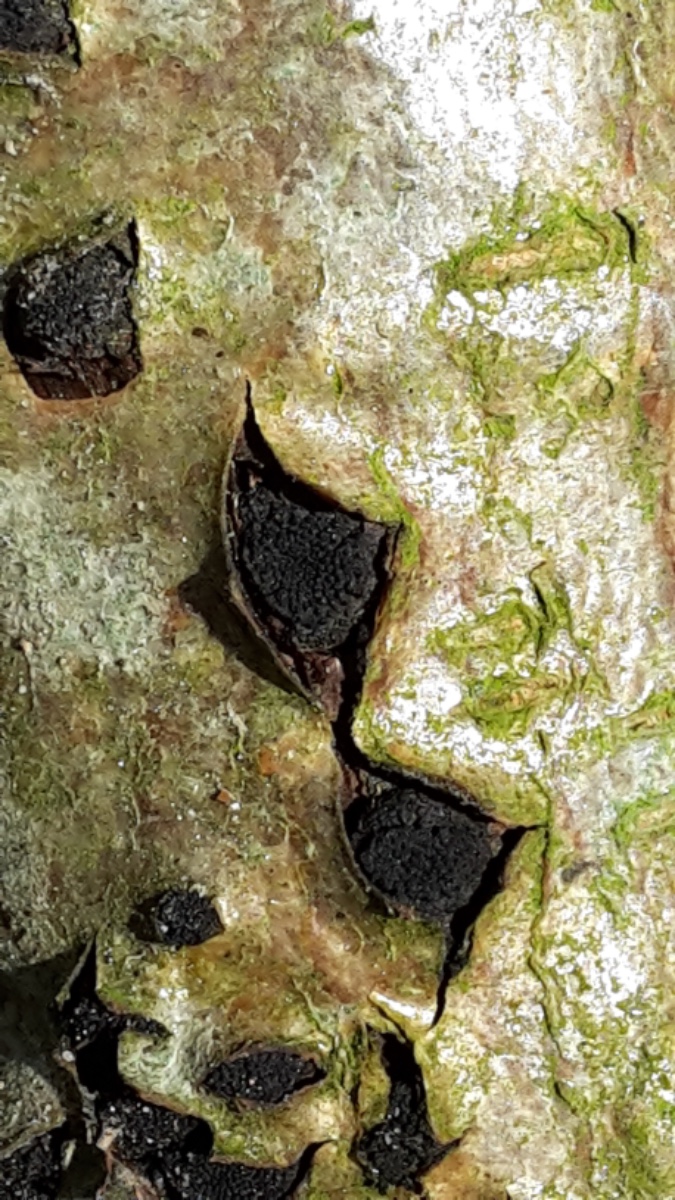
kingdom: Fungi
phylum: Ascomycota
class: Sordariomycetes
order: Xylariales
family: Diatrypaceae
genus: Eutypella
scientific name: Eutypella sorbi
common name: rønne-kulskorpe
